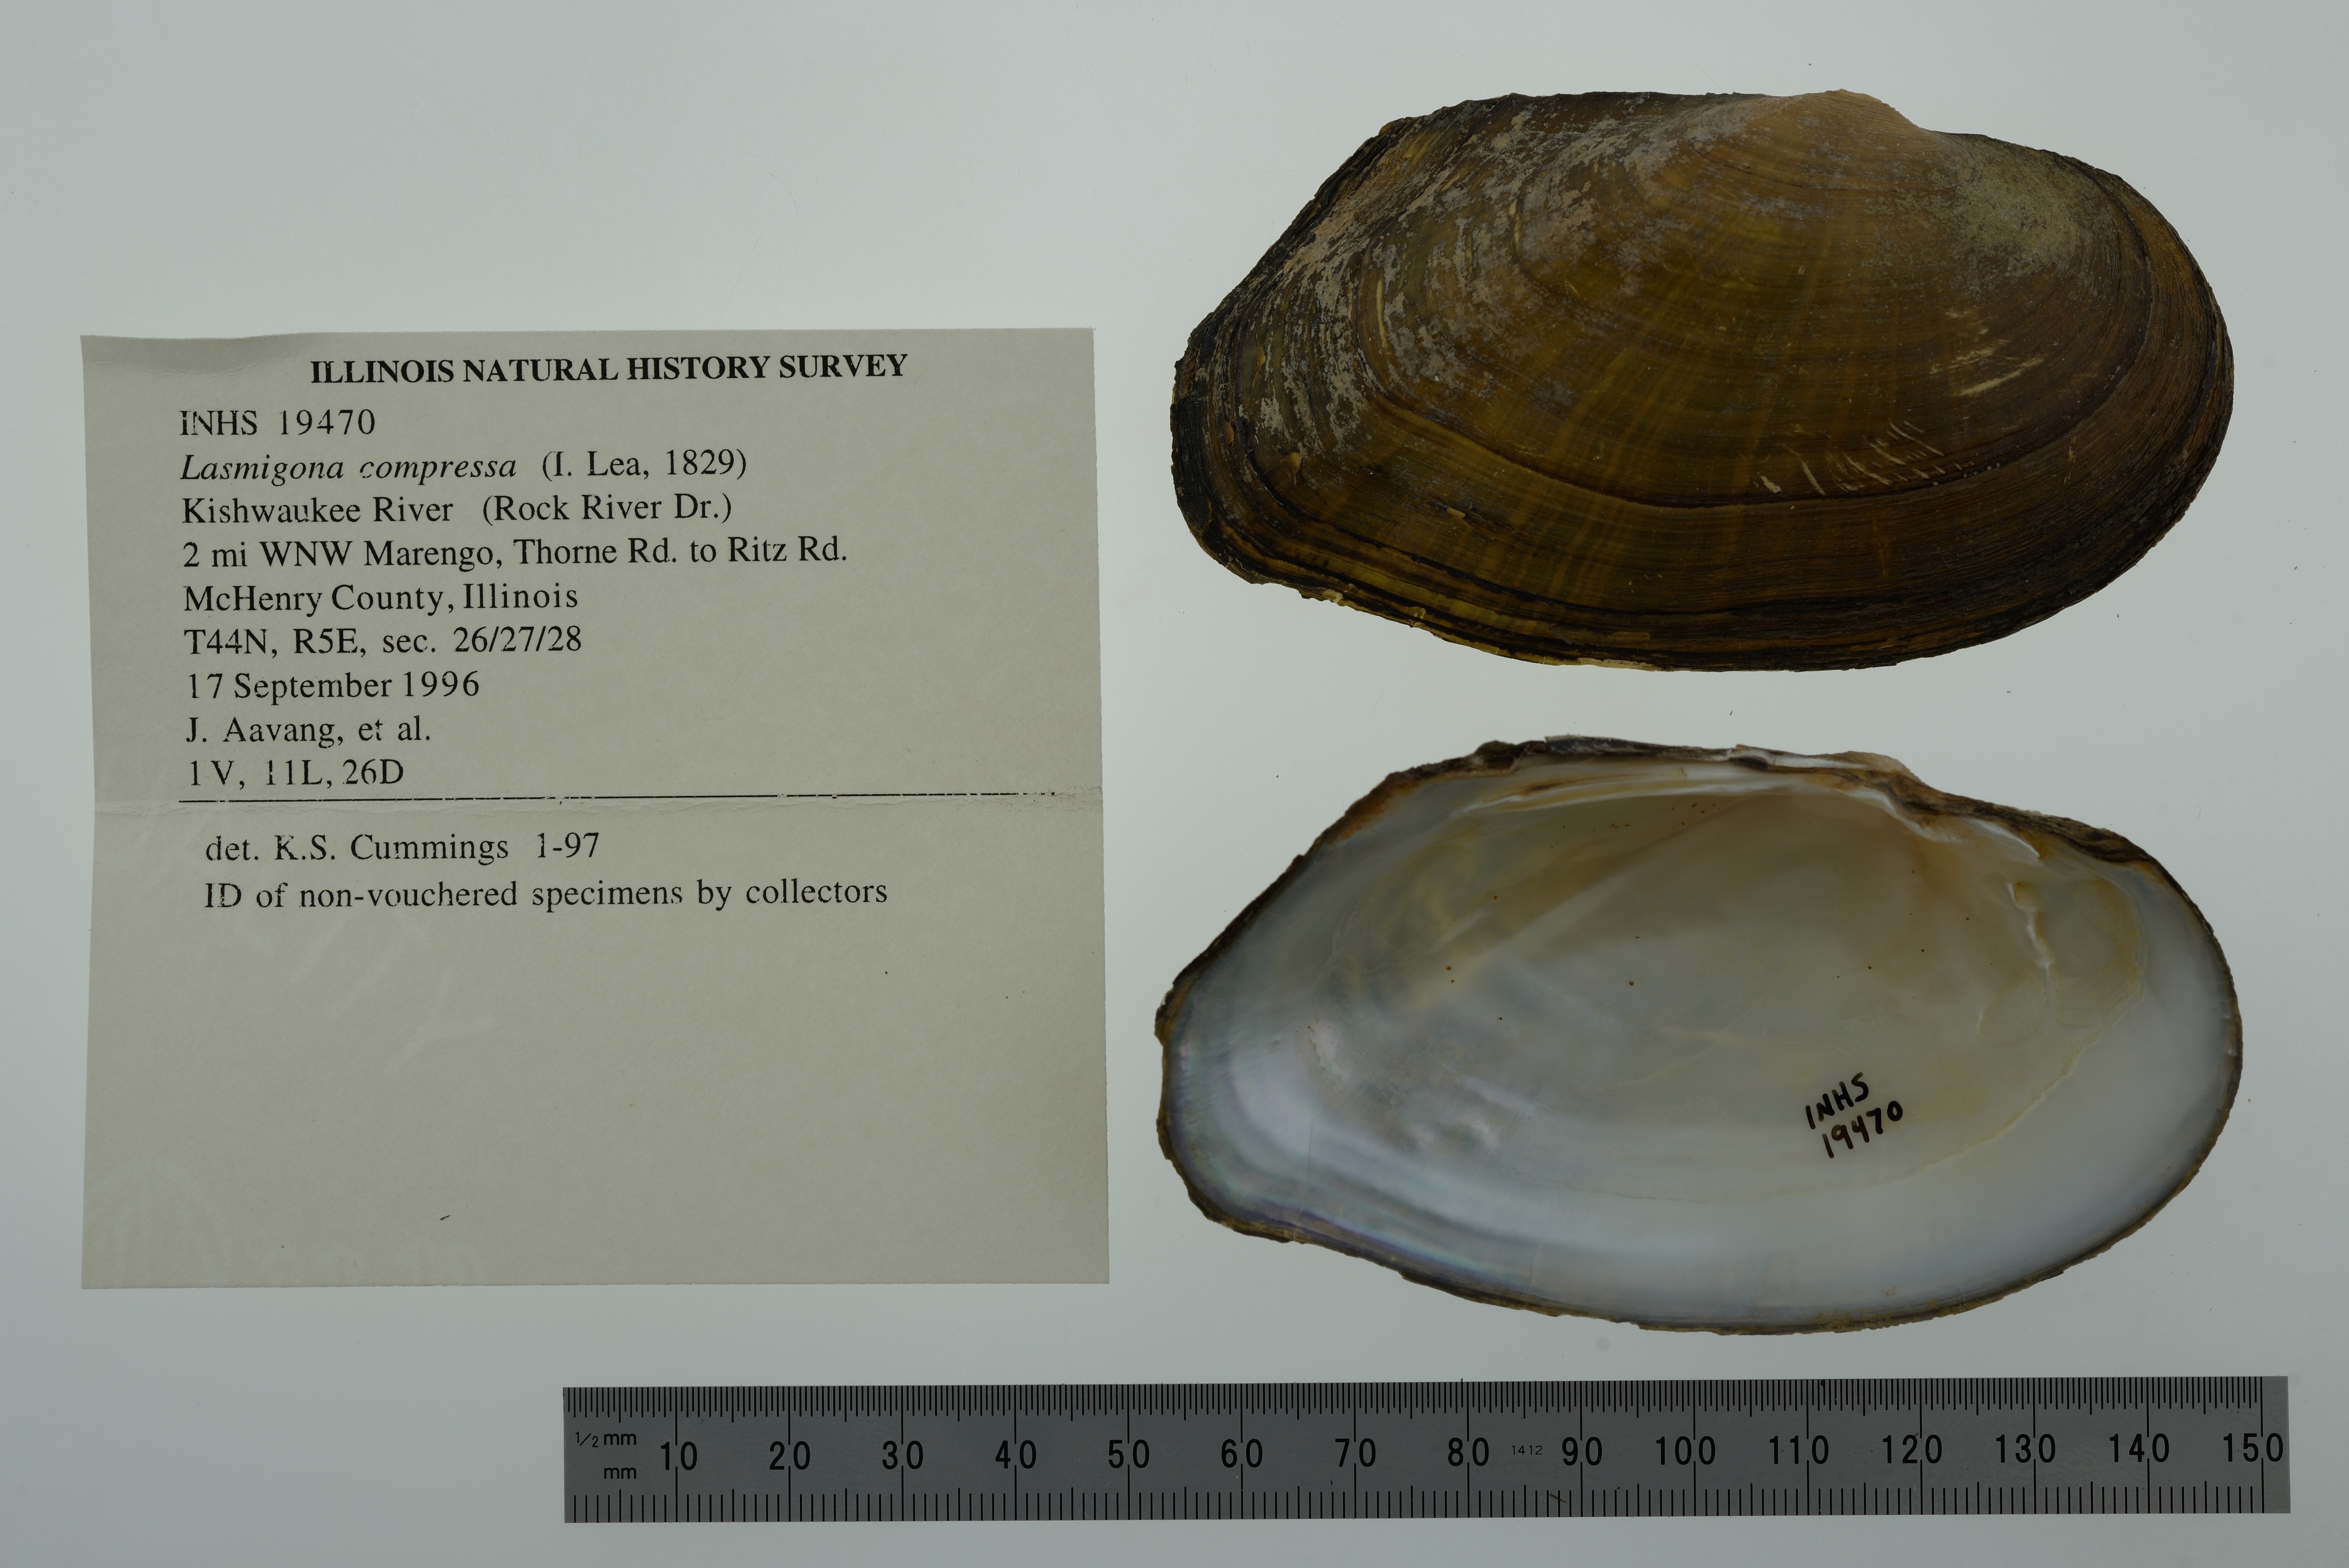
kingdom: Animalia
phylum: Mollusca
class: Bivalvia
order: Unionida
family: Unionidae
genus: Lasmigona
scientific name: Lasmigona compressa
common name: Creek heelsplitter
